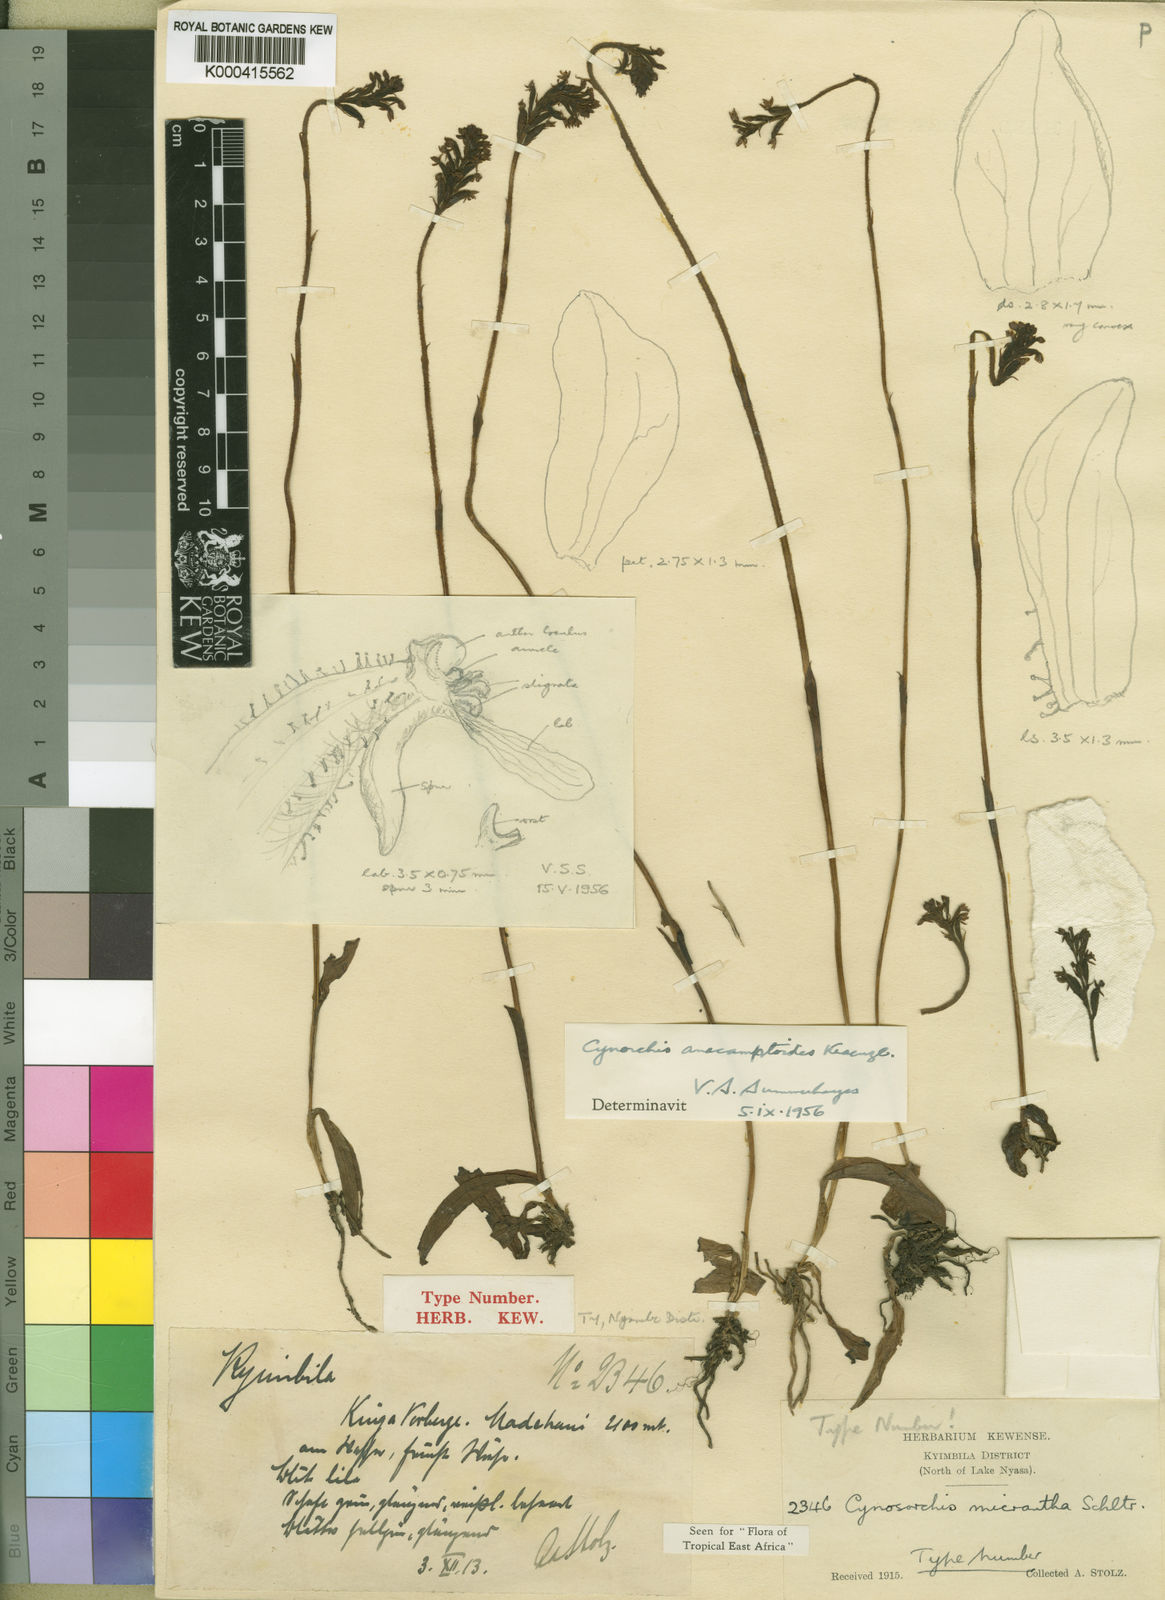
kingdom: Plantae
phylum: Tracheophyta
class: Liliopsida
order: Asparagales
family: Orchidaceae
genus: Cynorkis
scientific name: Cynorkis anacamptoides
